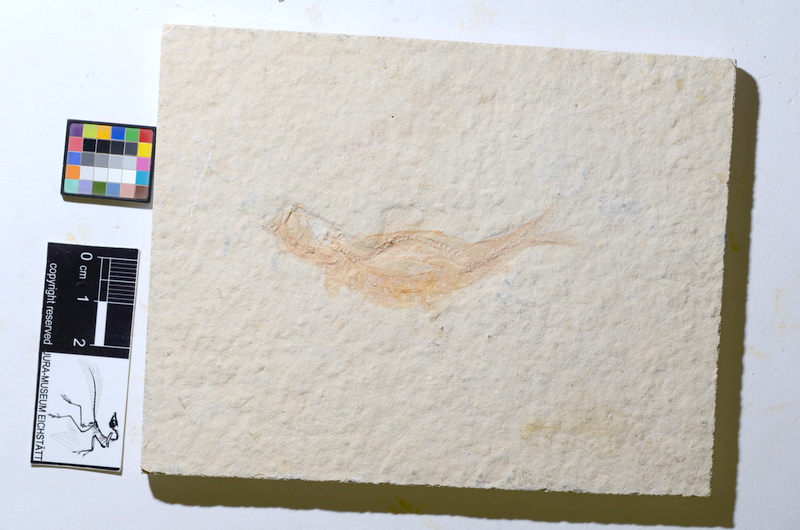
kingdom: Animalia
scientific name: Animalia
